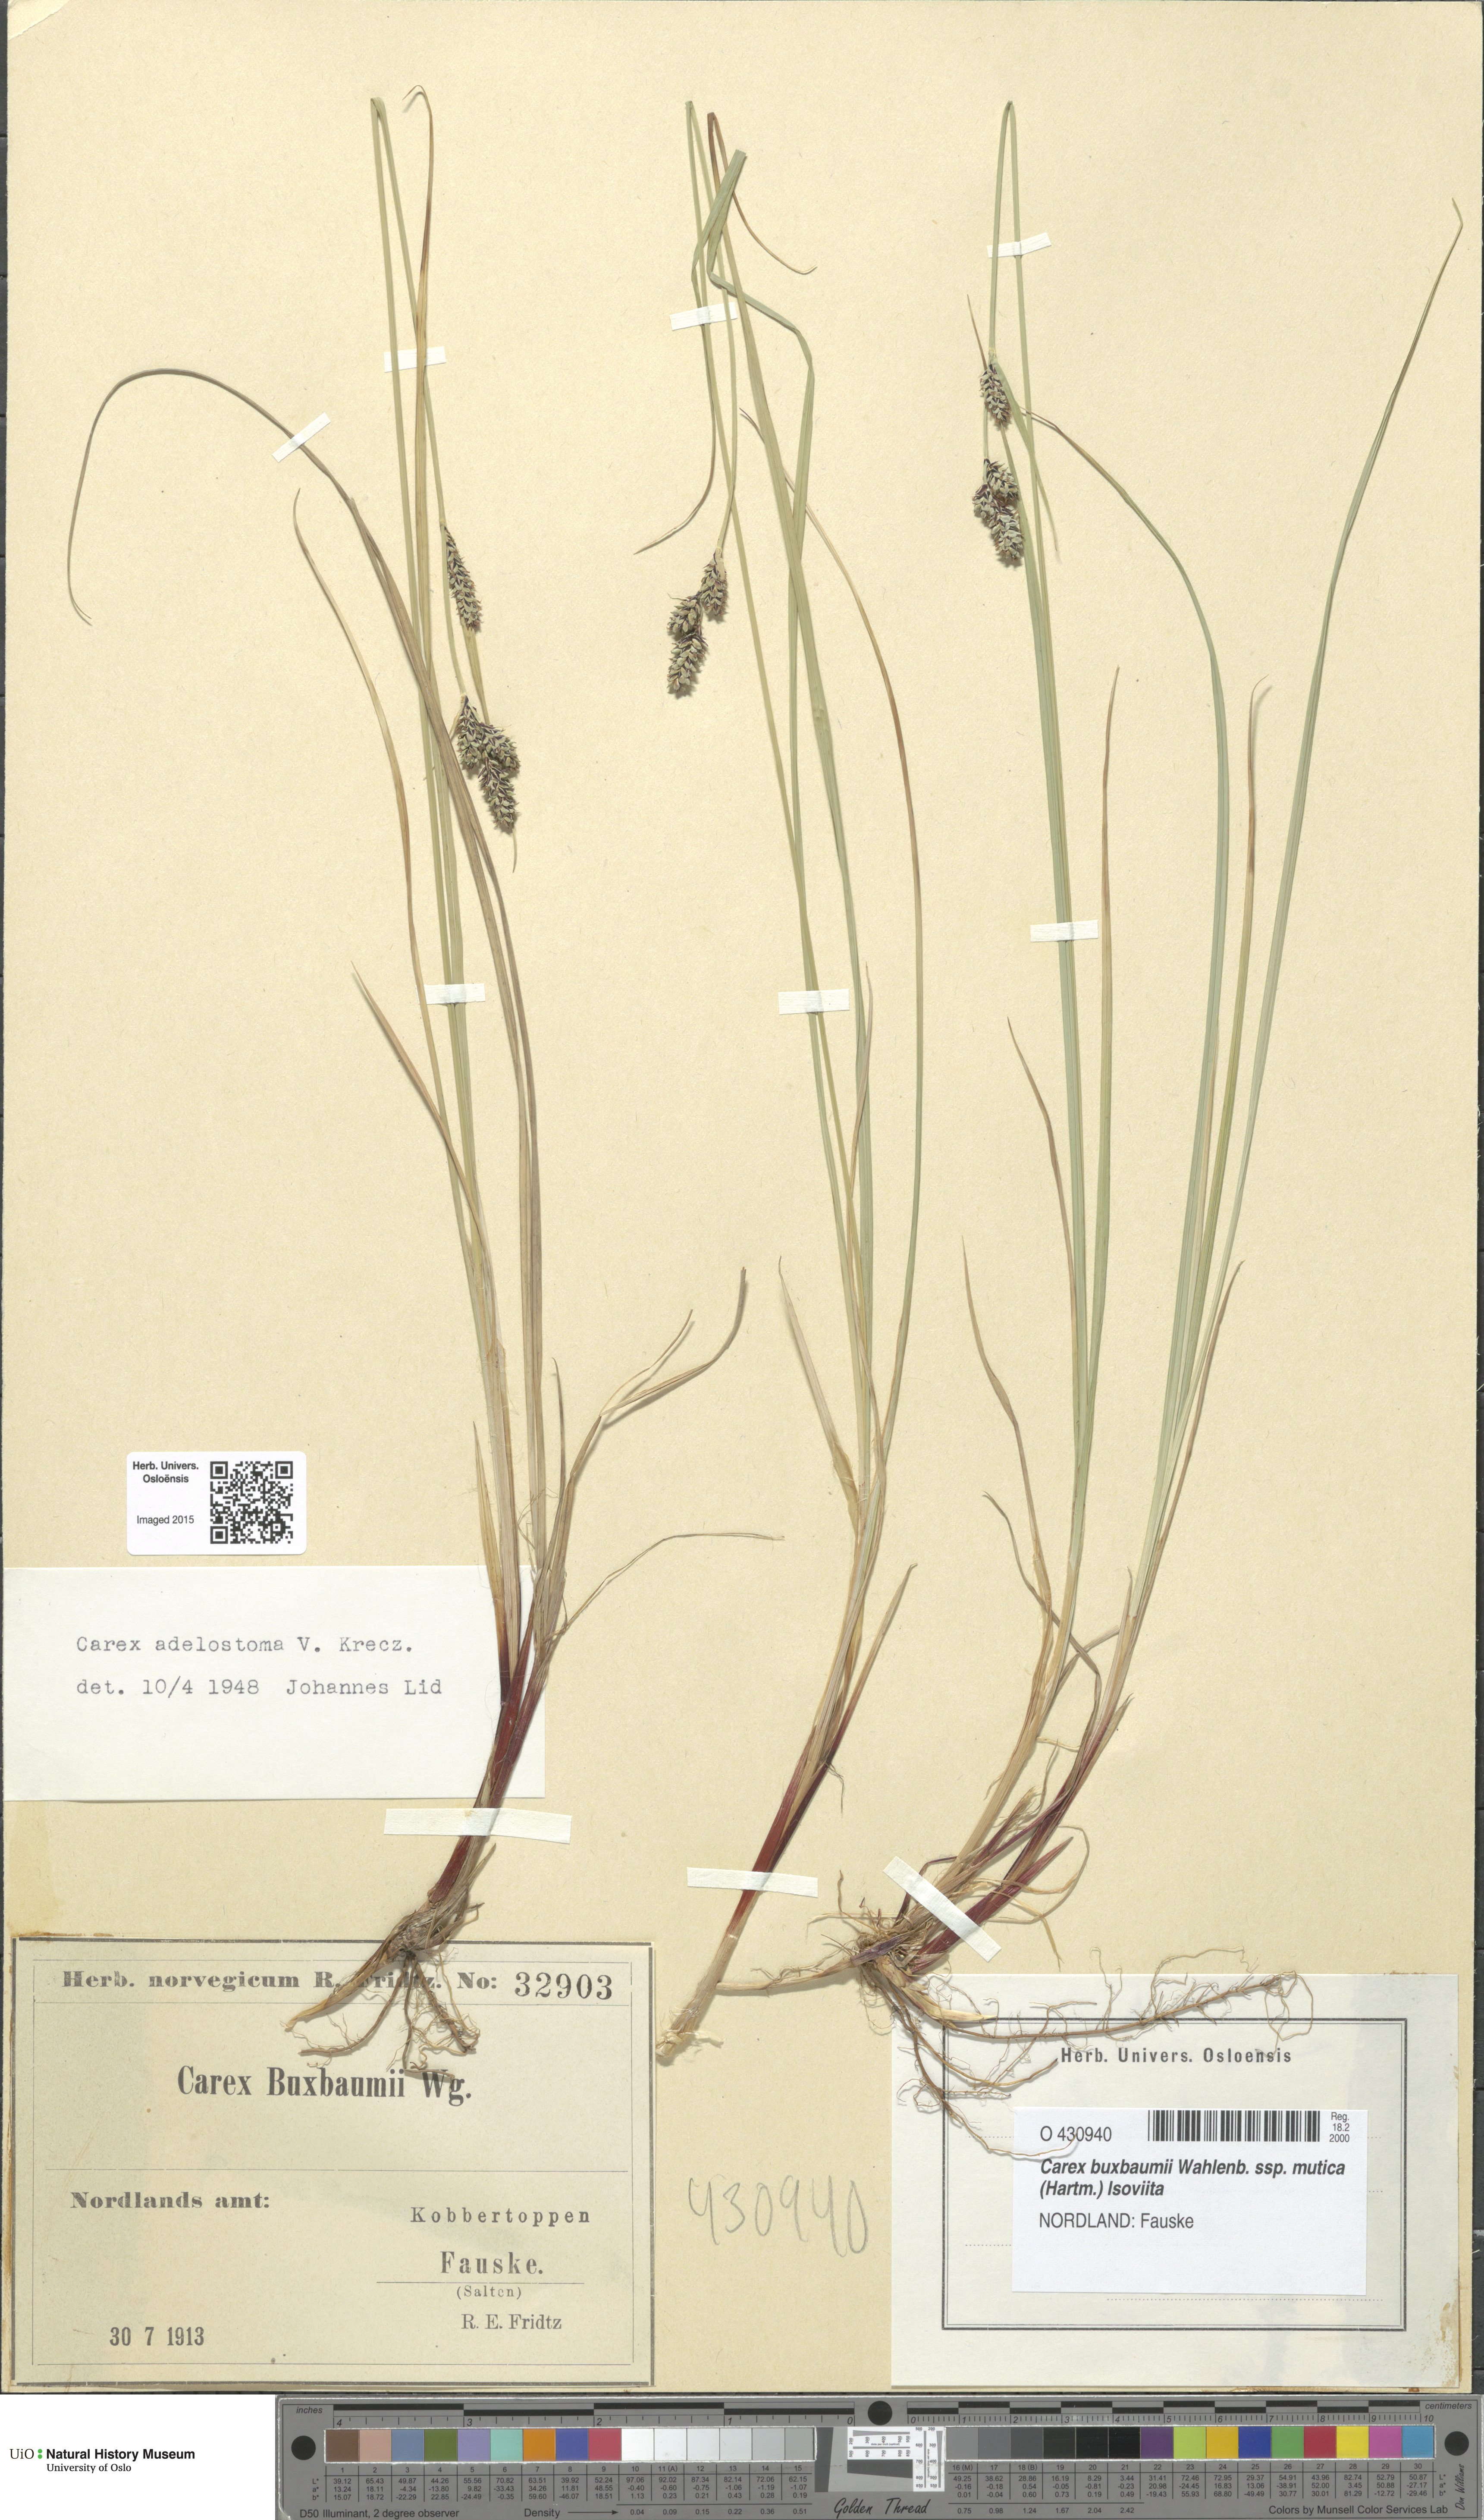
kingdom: Plantae
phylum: Tracheophyta
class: Liliopsida
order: Poales
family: Cyperaceae
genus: Carex
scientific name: Carex adelostoma
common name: Circumpolar sedge
